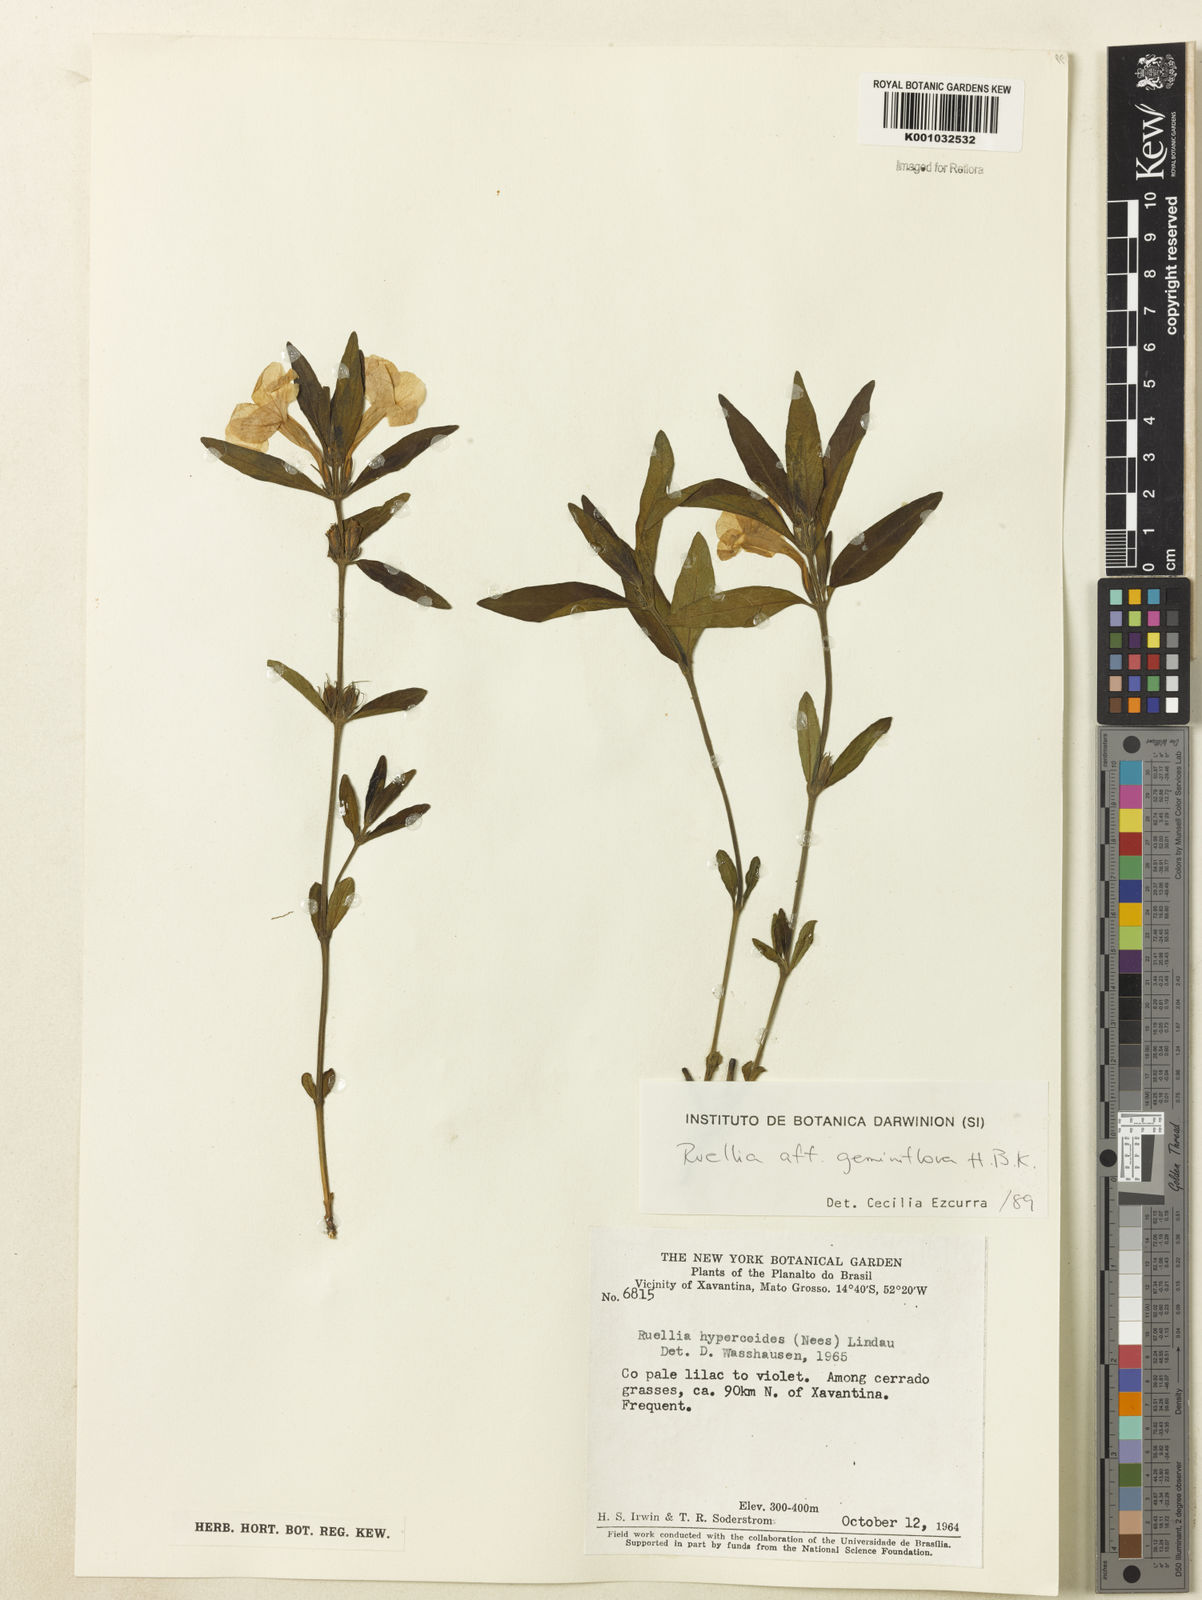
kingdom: Plantae
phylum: Tracheophyta
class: Magnoliopsida
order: Lamiales
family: Acanthaceae
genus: Ruellia
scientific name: Ruellia magniflora
